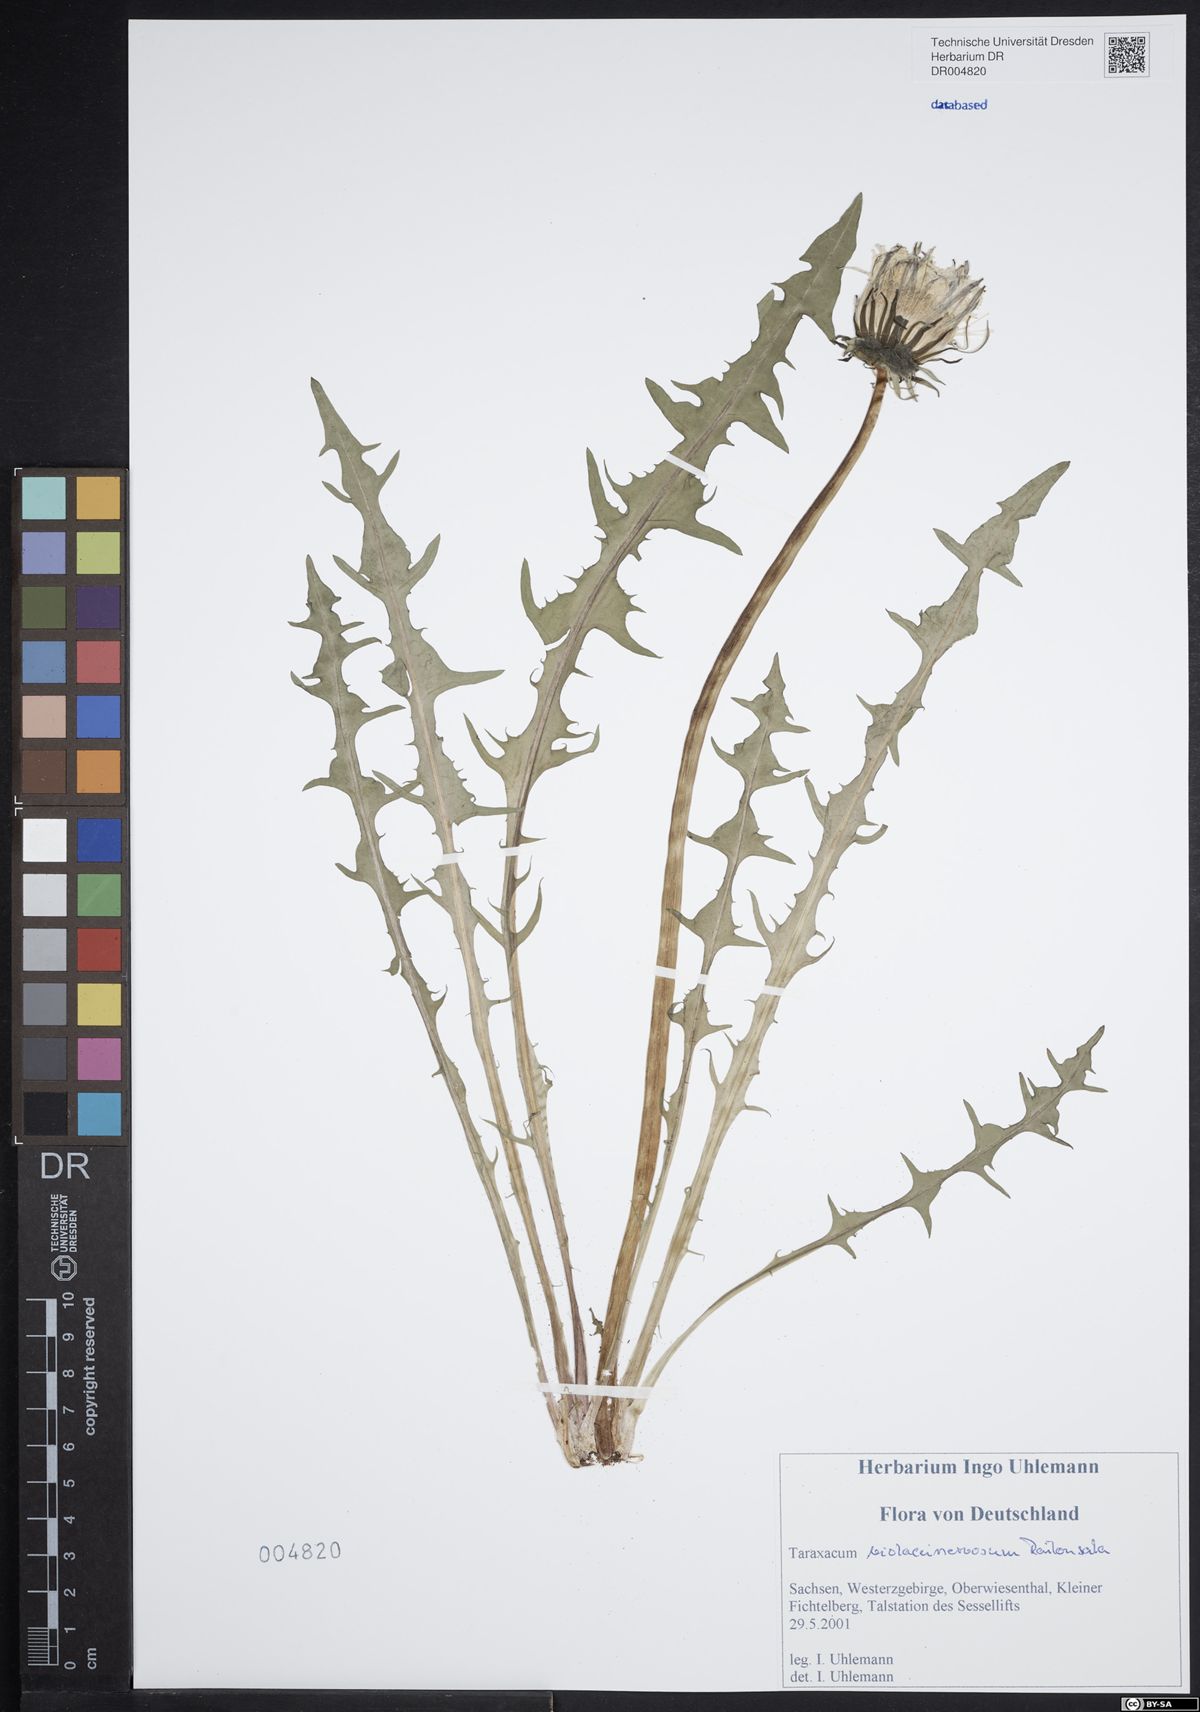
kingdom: Plantae
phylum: Tracheophyta
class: Magnoliopsida
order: Asterales
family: Asteraceae
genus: Taraxacum
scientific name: Taraxacum violaceinervosum
